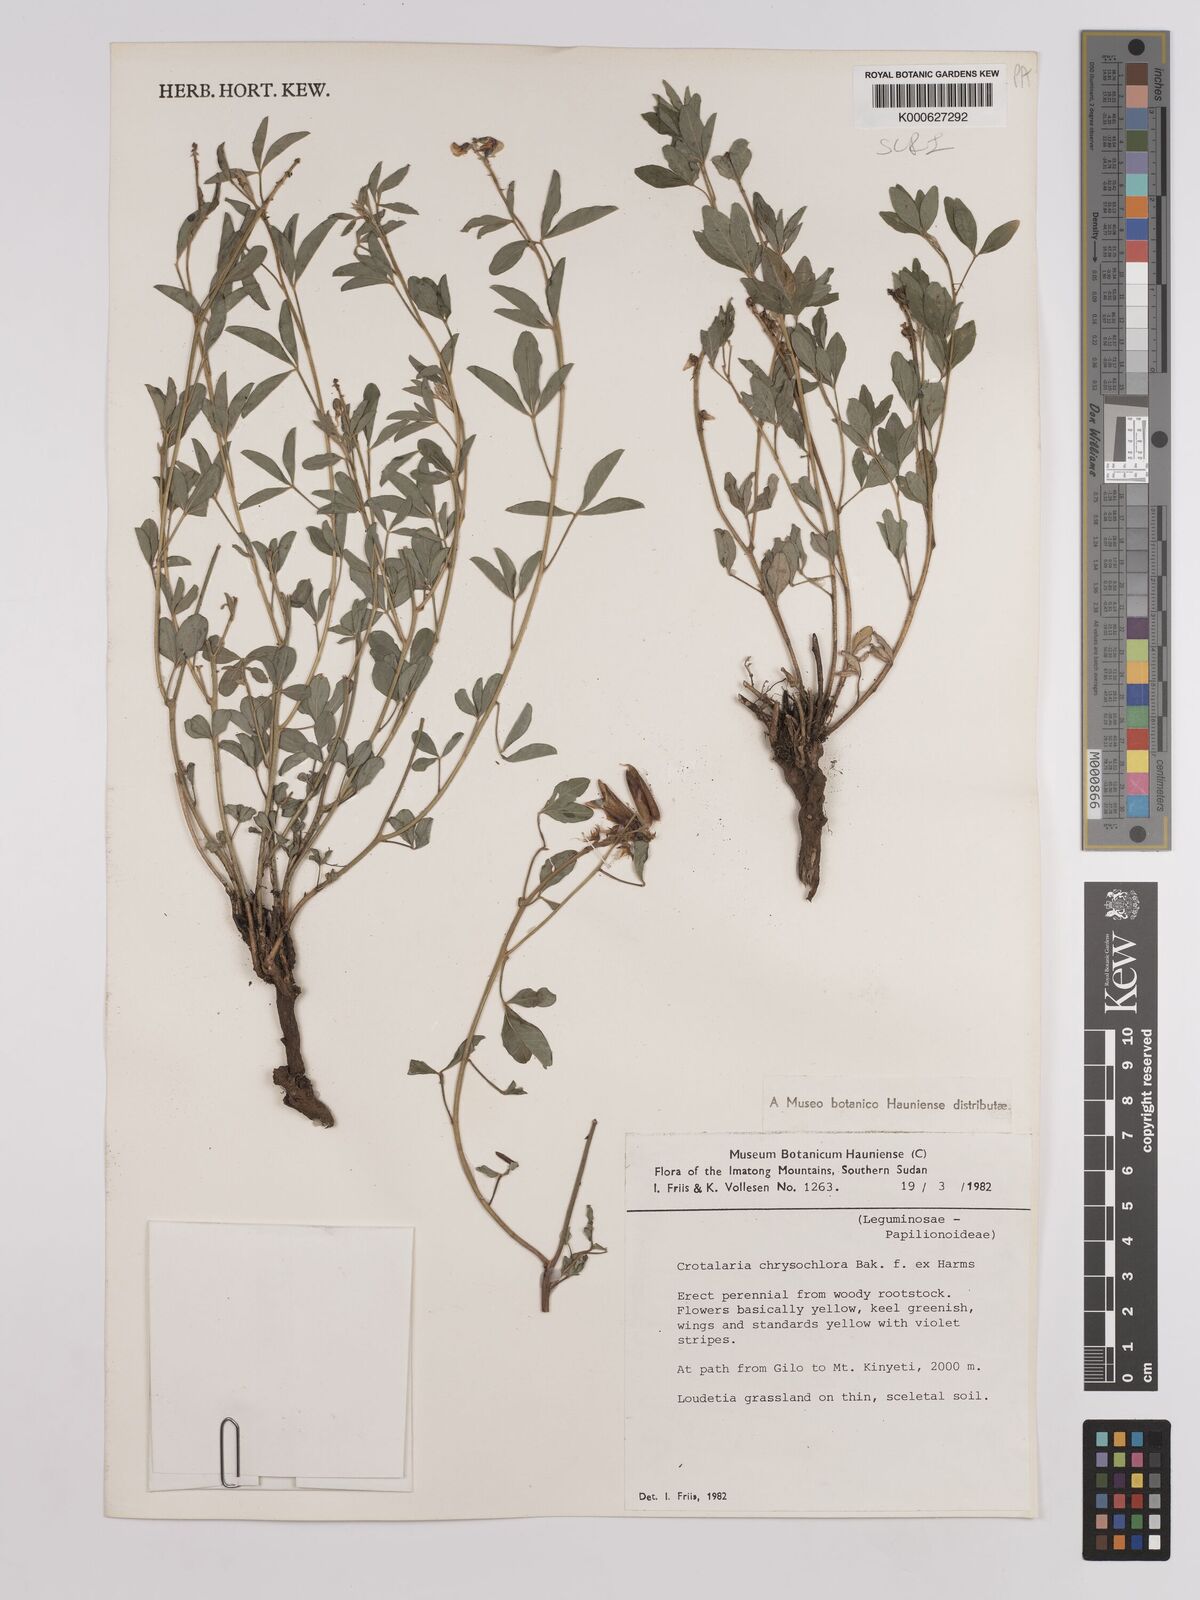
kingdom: Plantae
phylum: Tracheophyta
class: Magnoliopsida
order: Fabales
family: Fabaceae
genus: Crotalaria
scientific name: Crotalaria chrysochlora ex
